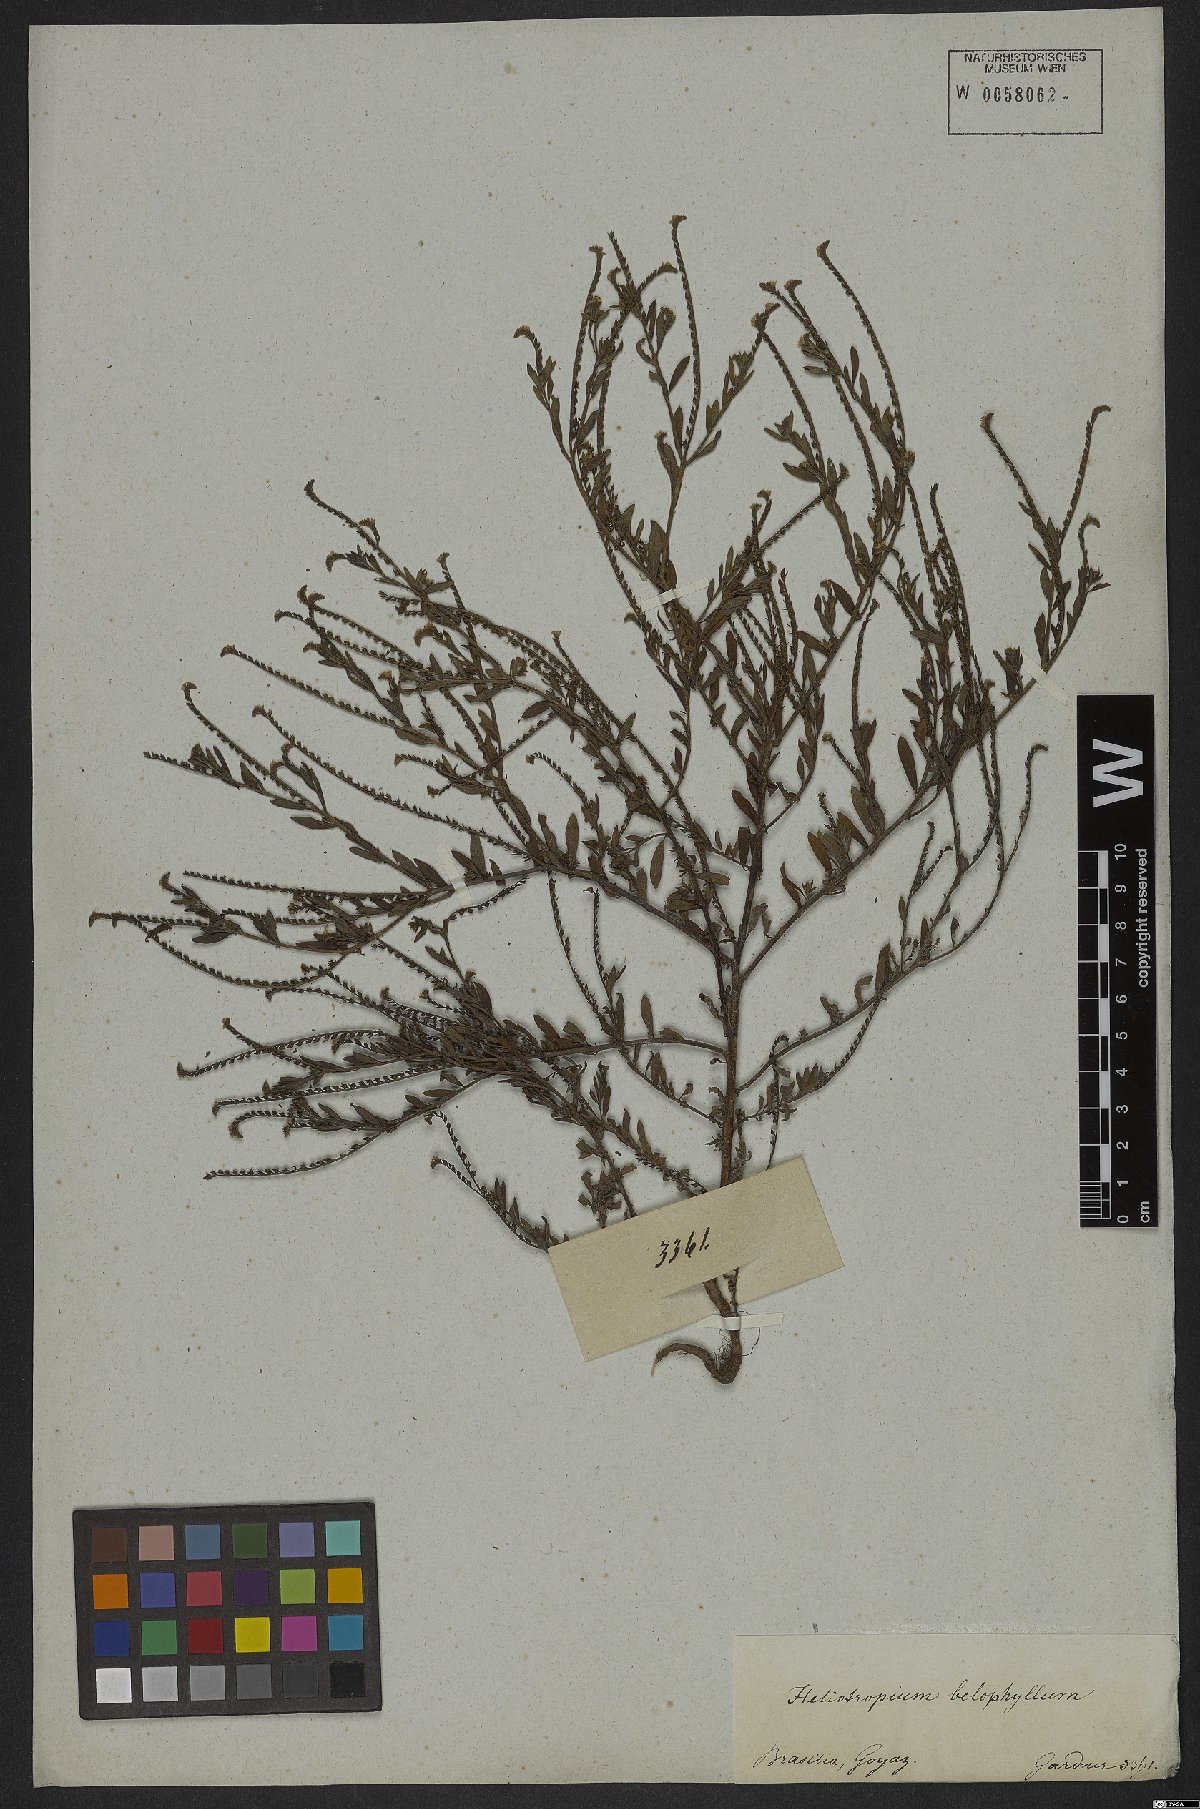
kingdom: Plantae
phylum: Tracheophyta
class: Magnoliopsida
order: Boraginales
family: Heliotropiaceae
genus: Euploca
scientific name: Euploca filiformis
